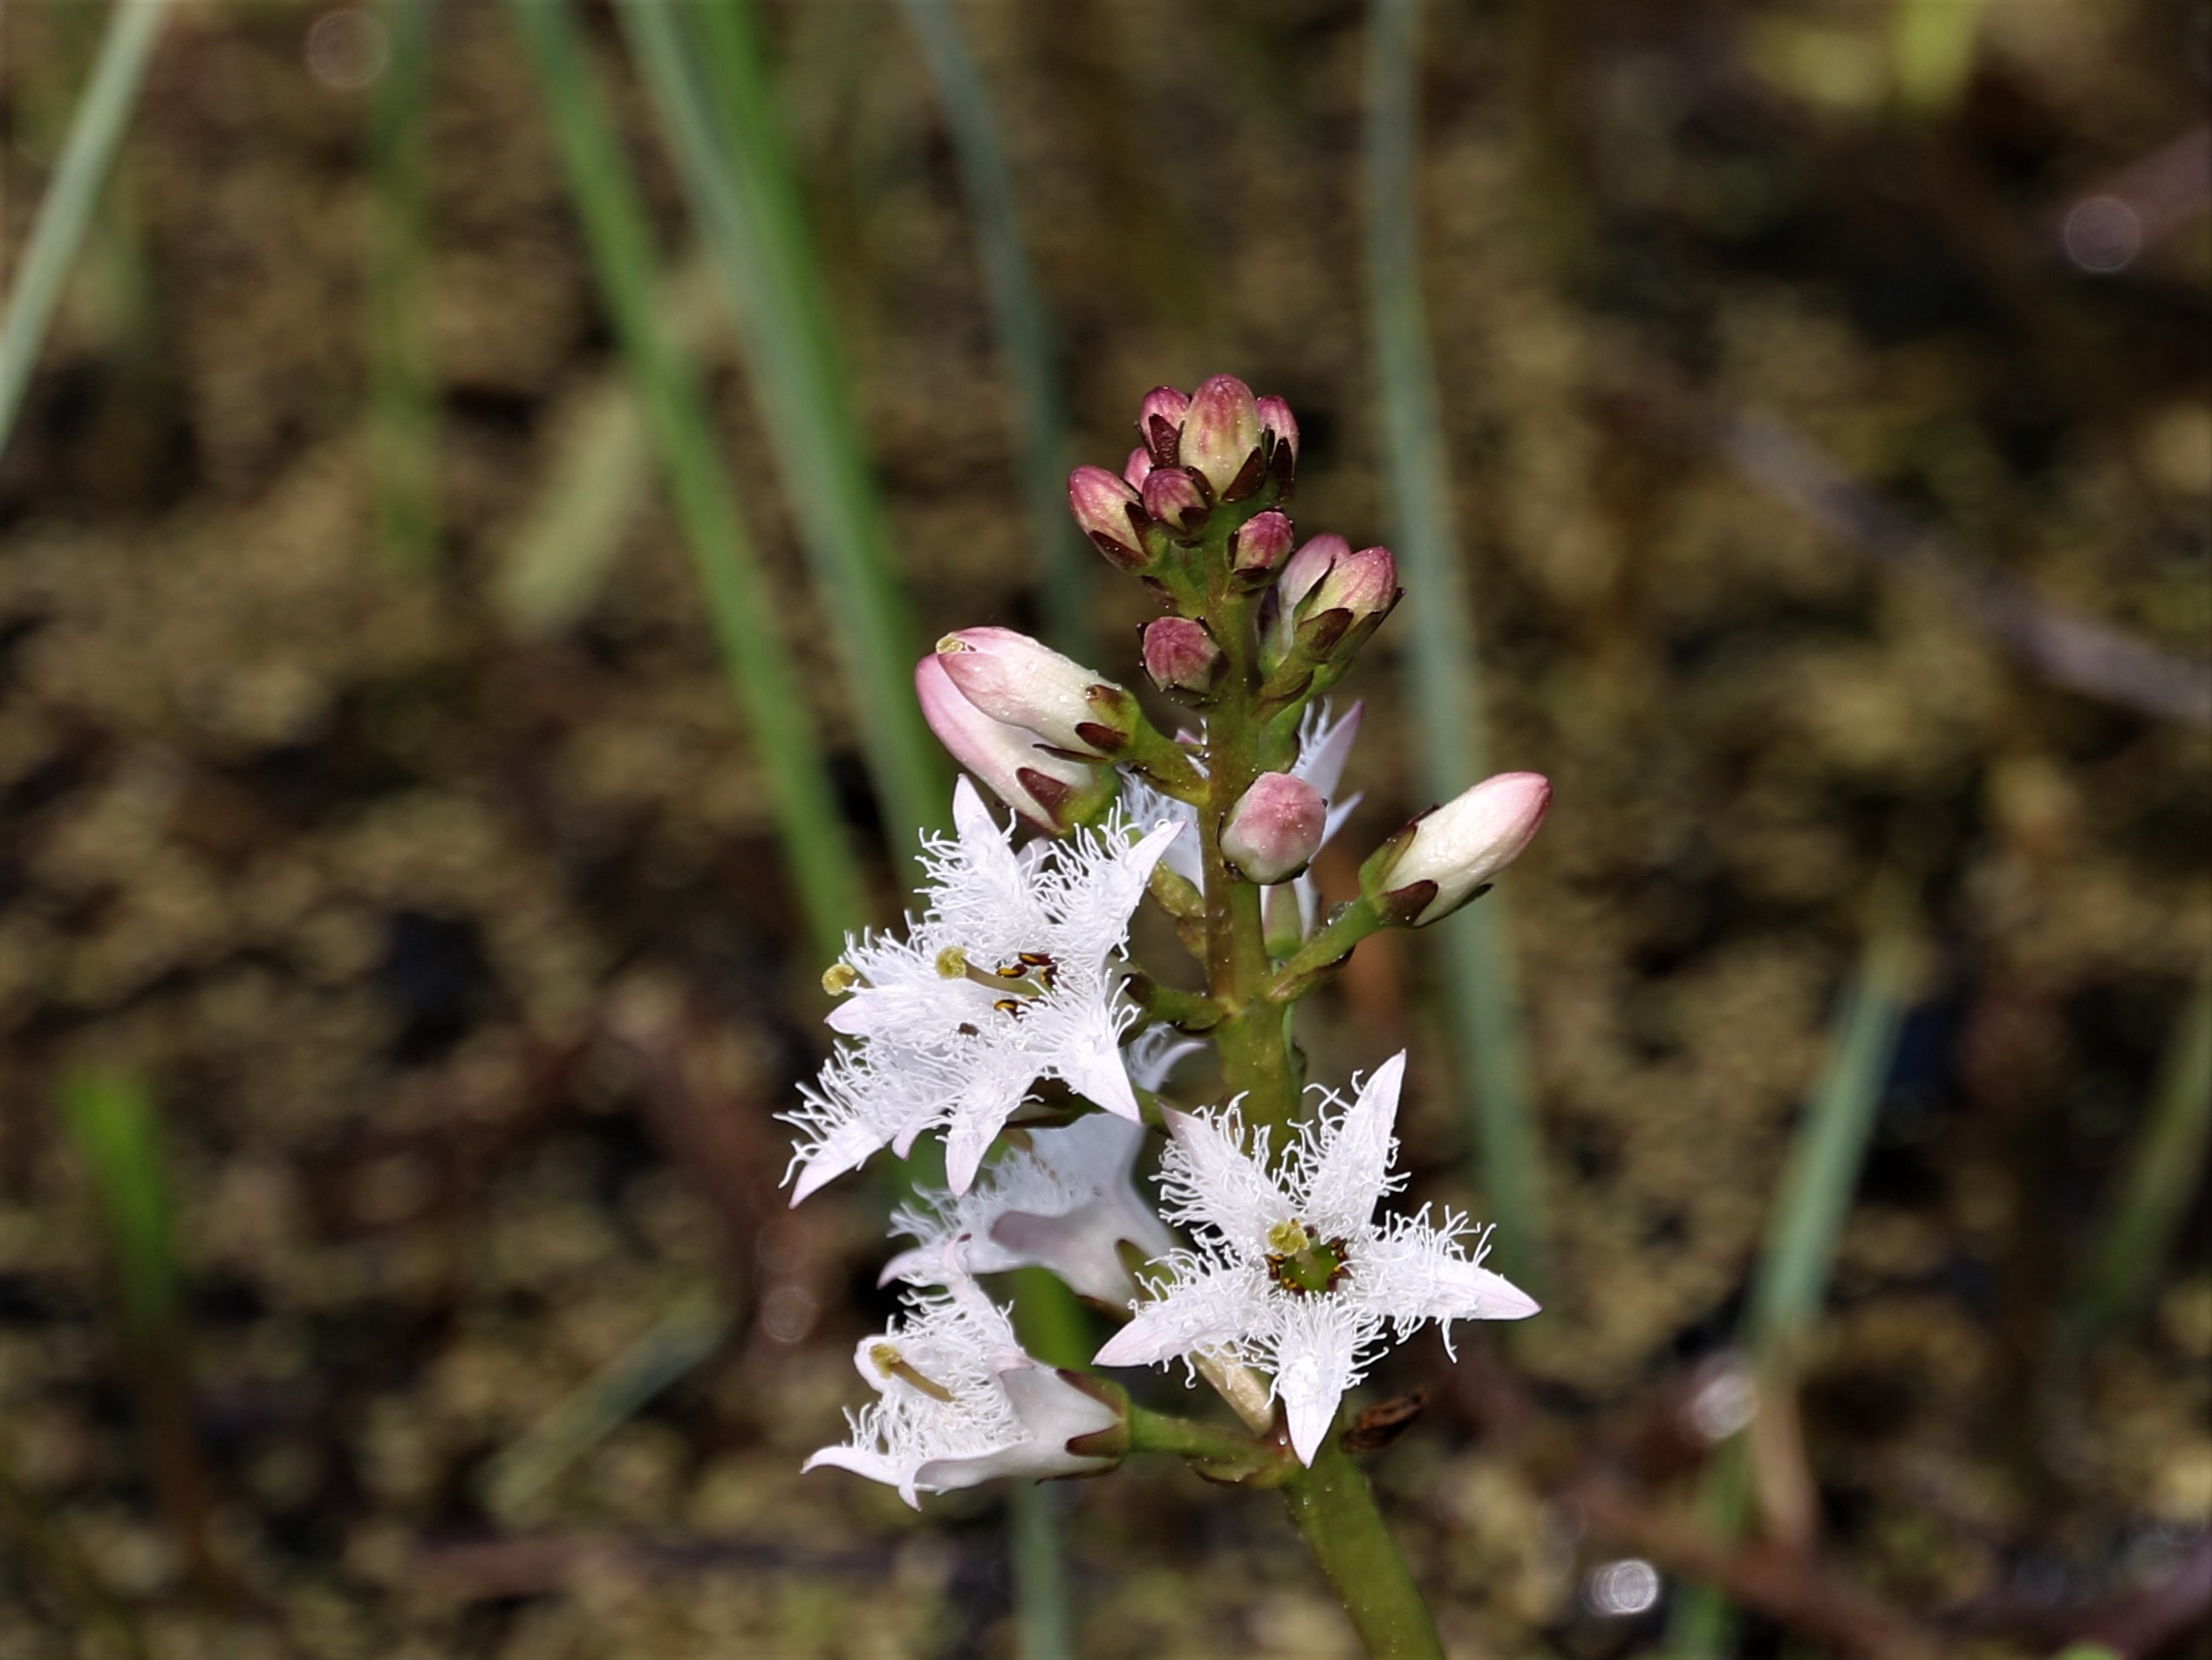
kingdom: Plantae
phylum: Tracheophyta
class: Magnoliopsida
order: Asterales
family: Menyanthaceae
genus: Menyanthes
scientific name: Menyanthes trifoliata
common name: Bukkeblad
